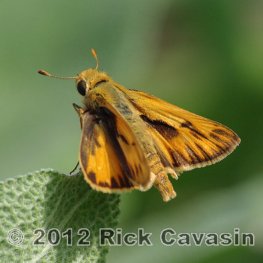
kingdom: Animalia
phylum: Arthropoda
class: Insecta
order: Lepidoptera
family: Hesperiidae
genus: Hylephila
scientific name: Hylephila phyleus
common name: Fiery Skipper
